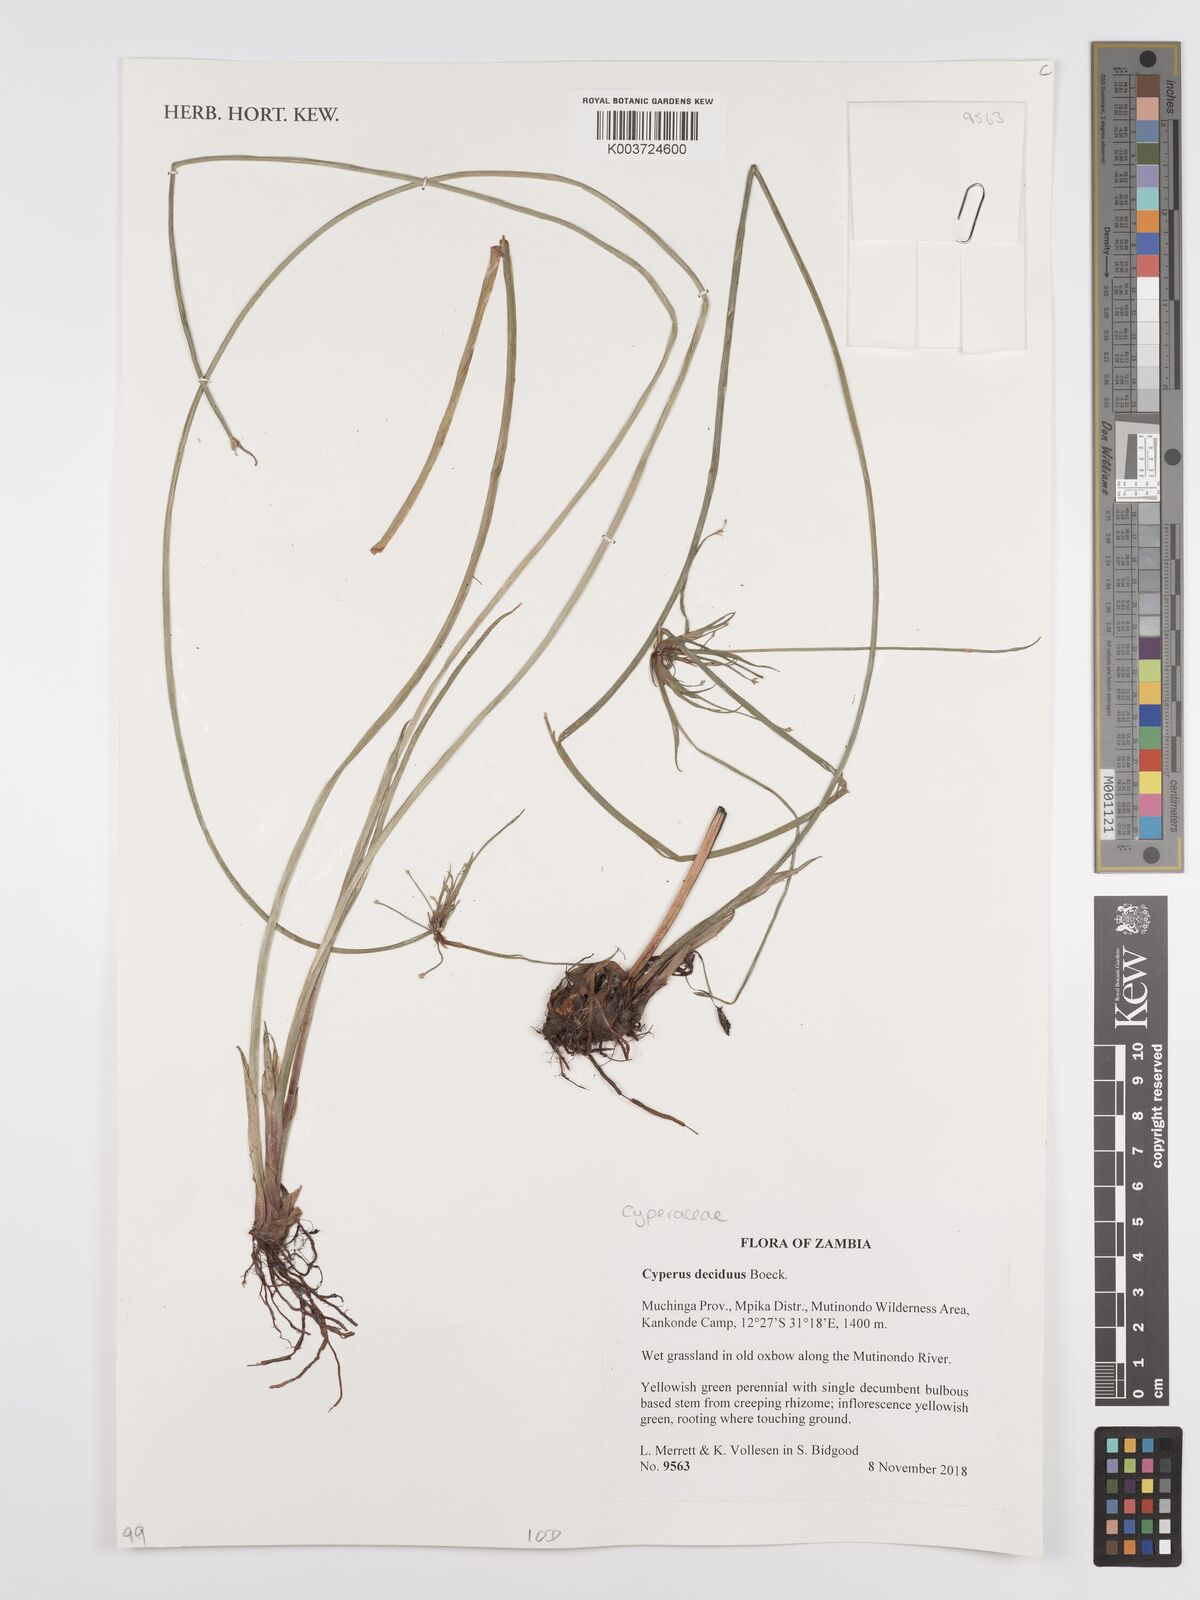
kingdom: Plantae
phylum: Tracheophyta
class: Liliopsida
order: Poales
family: Cyperaceae
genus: Cyperus
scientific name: Cyperus deciduus
